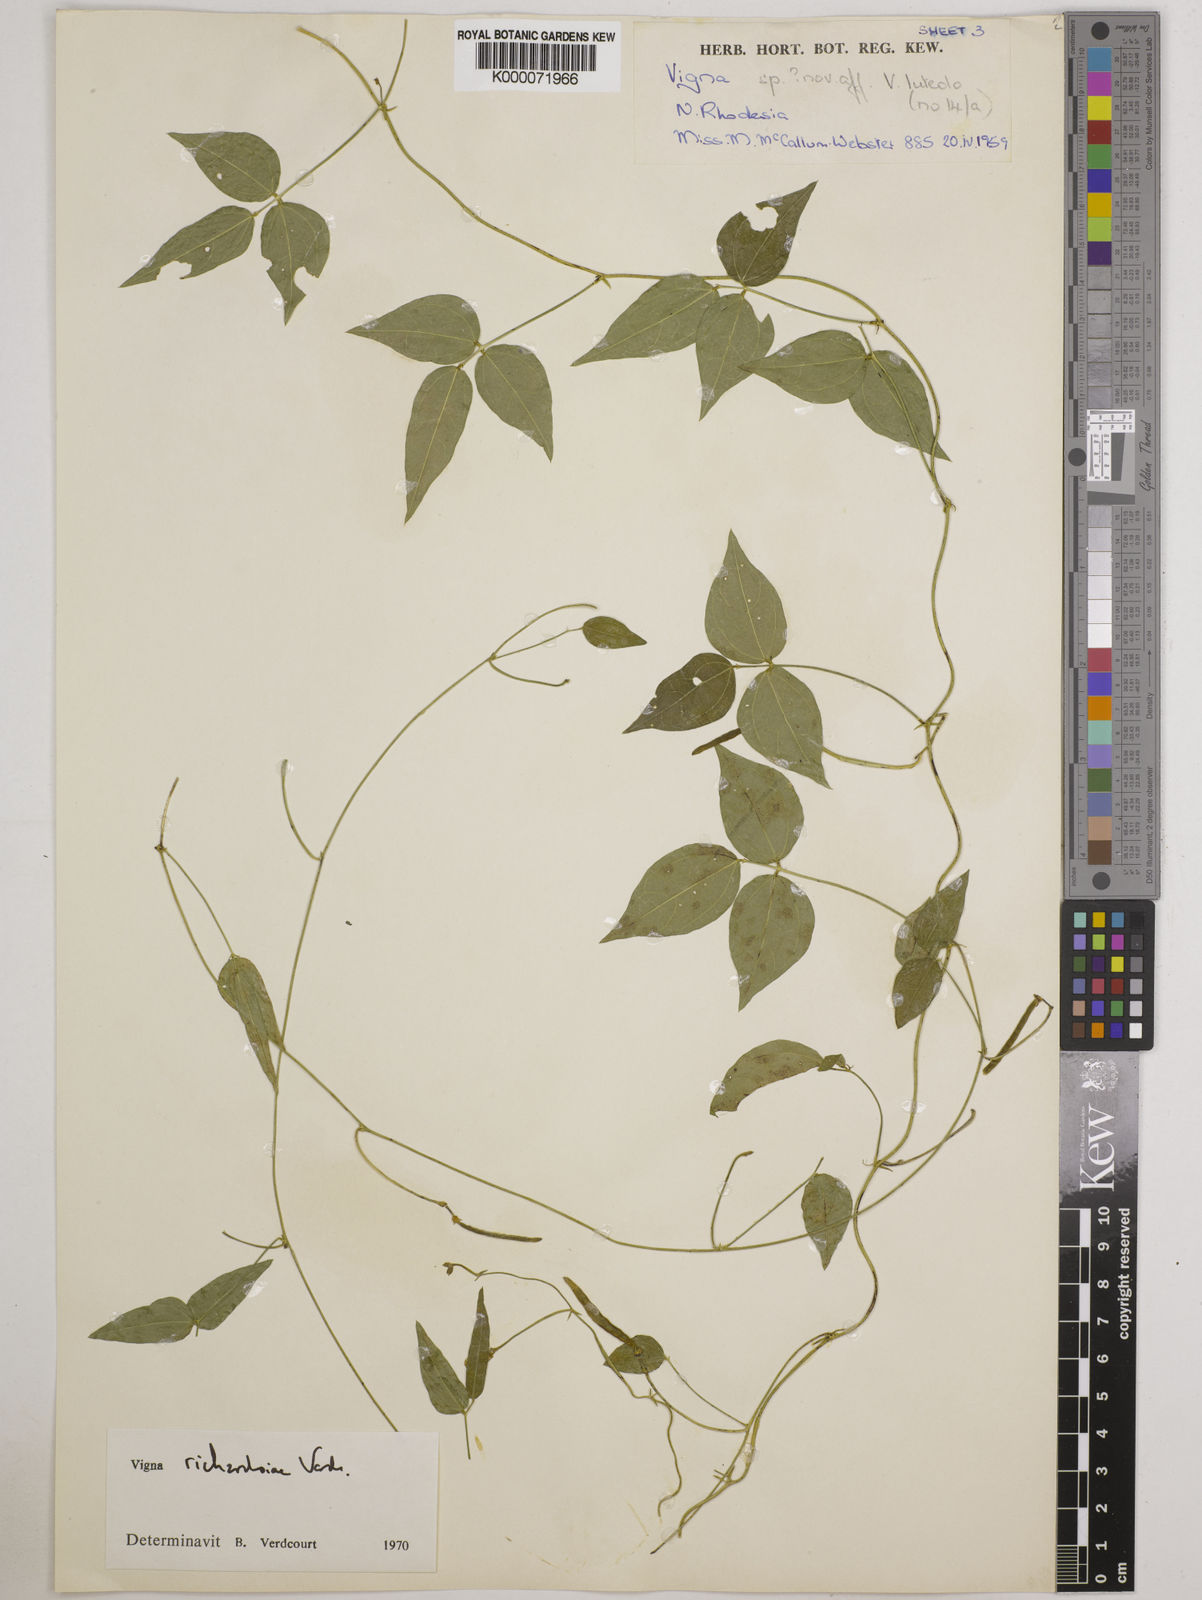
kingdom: Plantae
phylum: Tracheophyta
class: Magnoliopsida
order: Fabales
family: Fabaceae
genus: Vigna
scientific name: Vigna richardsiae
